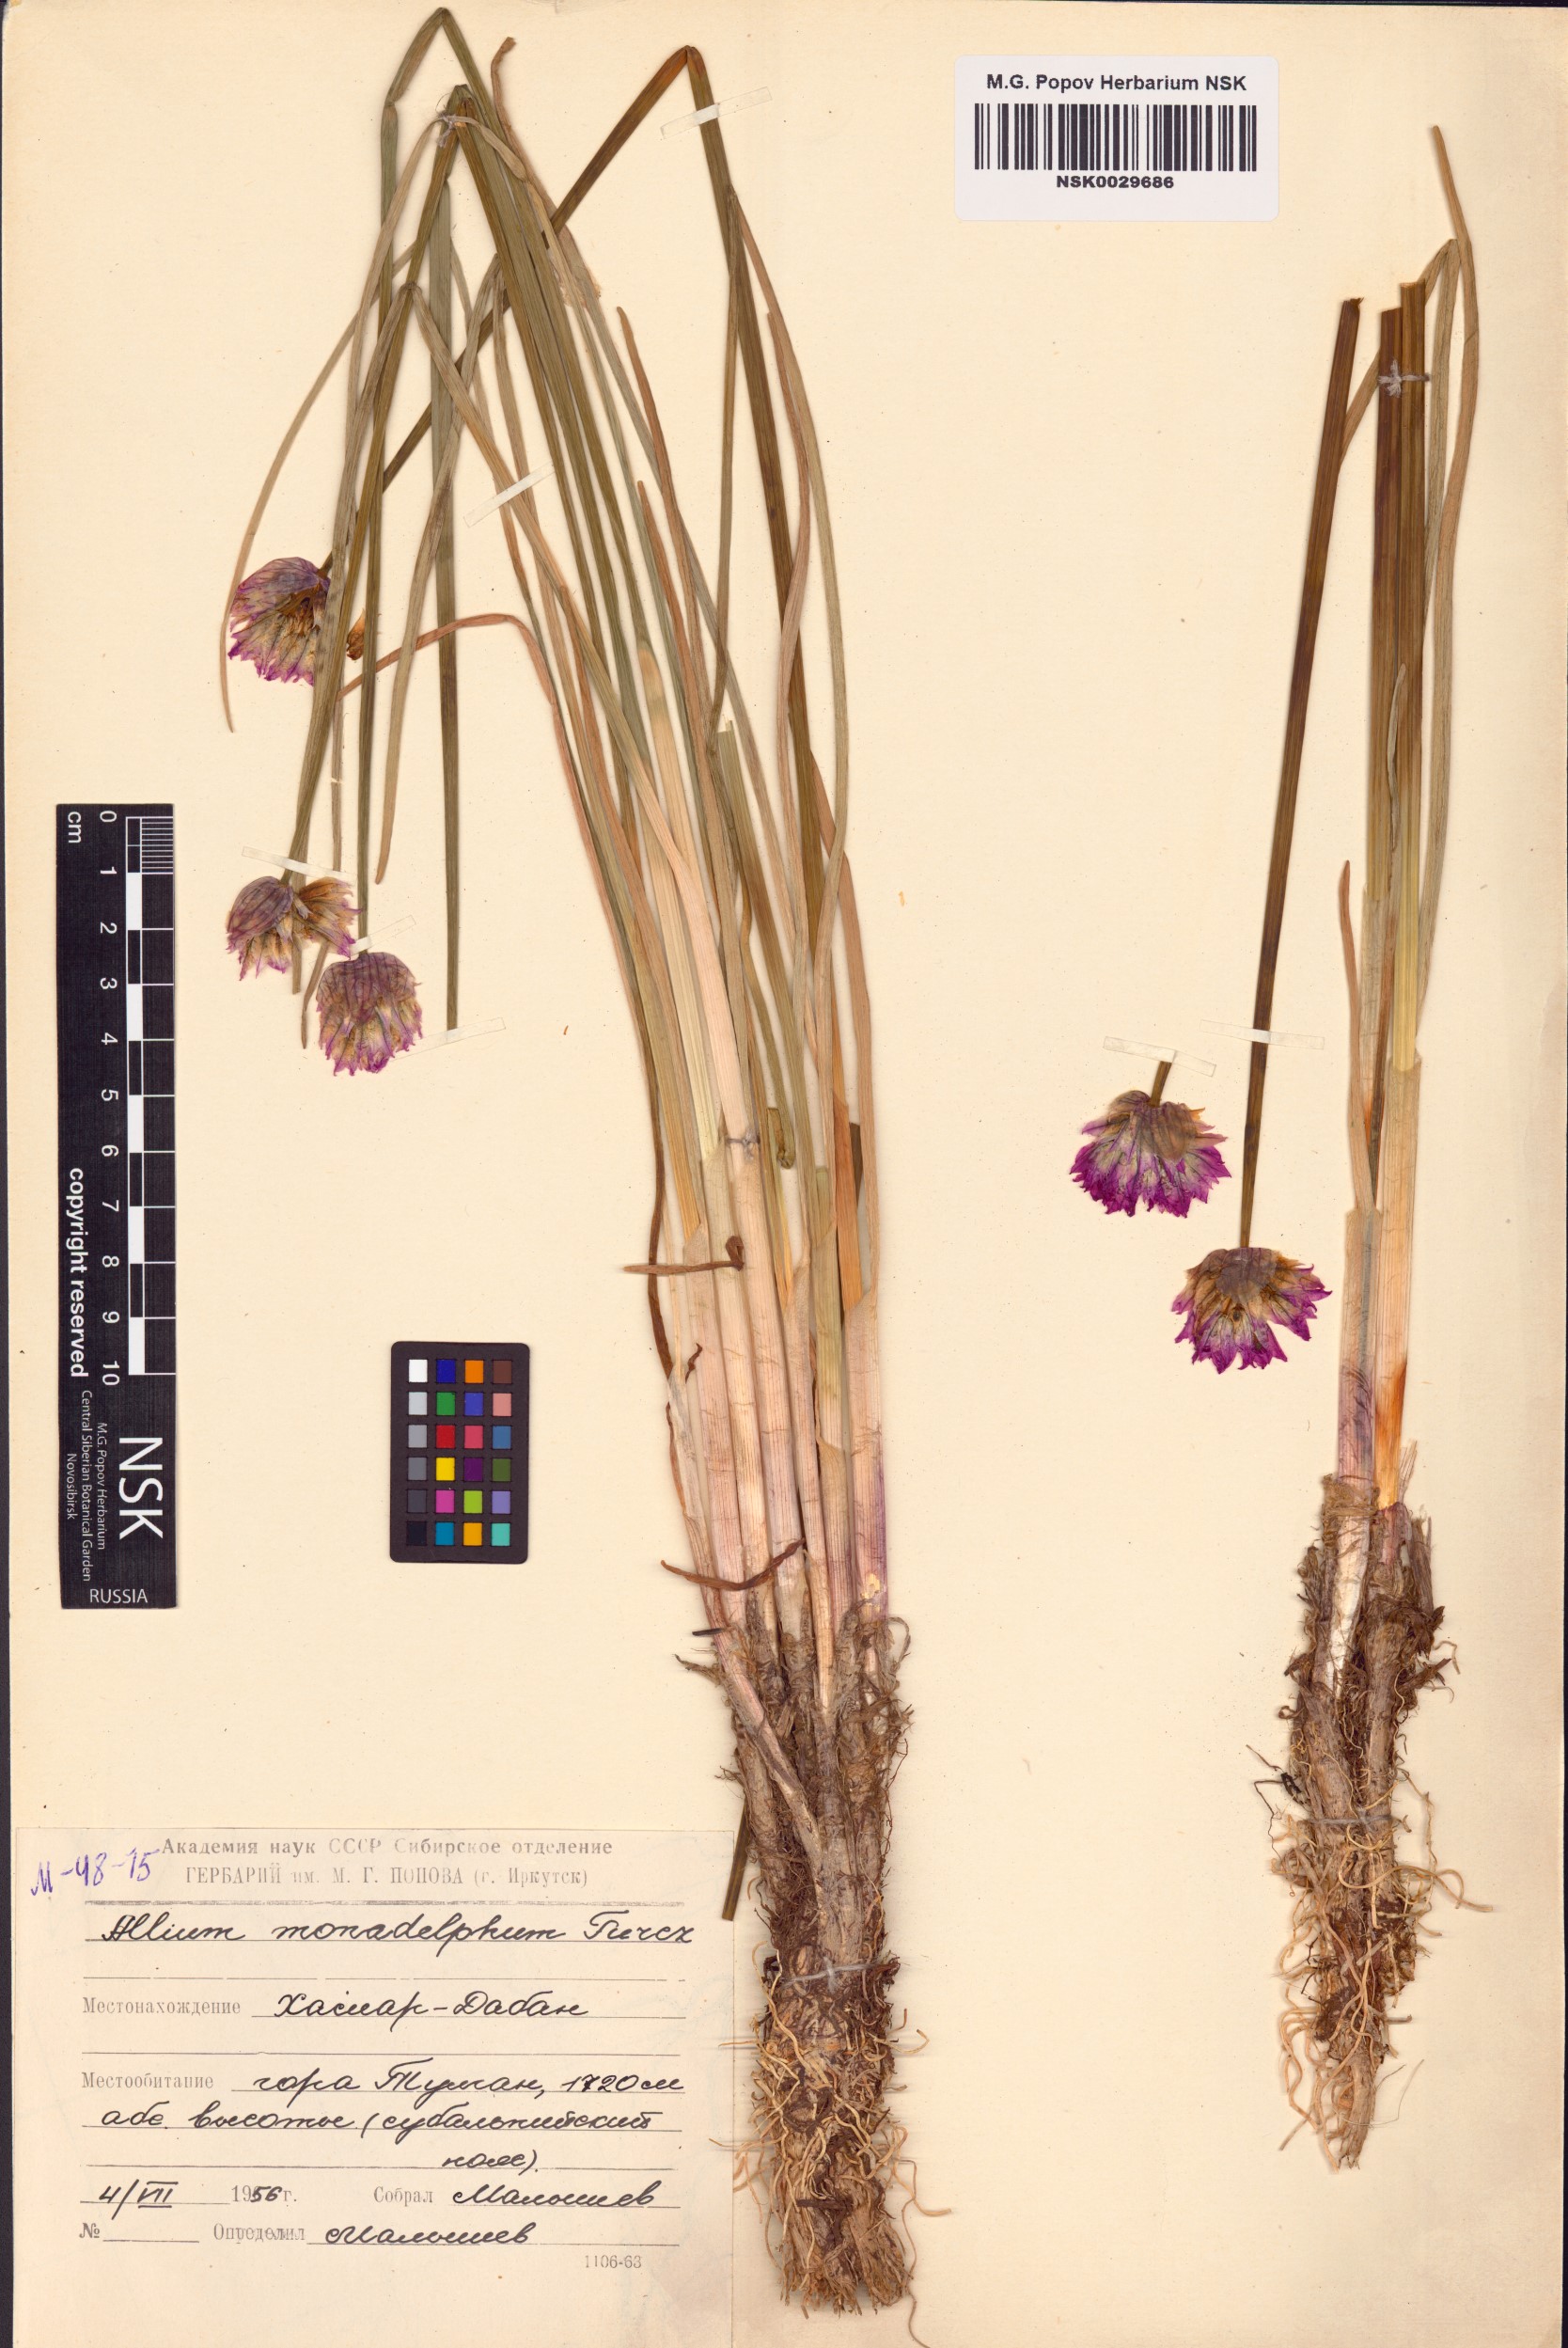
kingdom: Plantae
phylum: Tracheophyta
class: Liliopsida
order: Asparagales
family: Amaryllidaceae
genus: Allium
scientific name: Allium atrosanguineum
